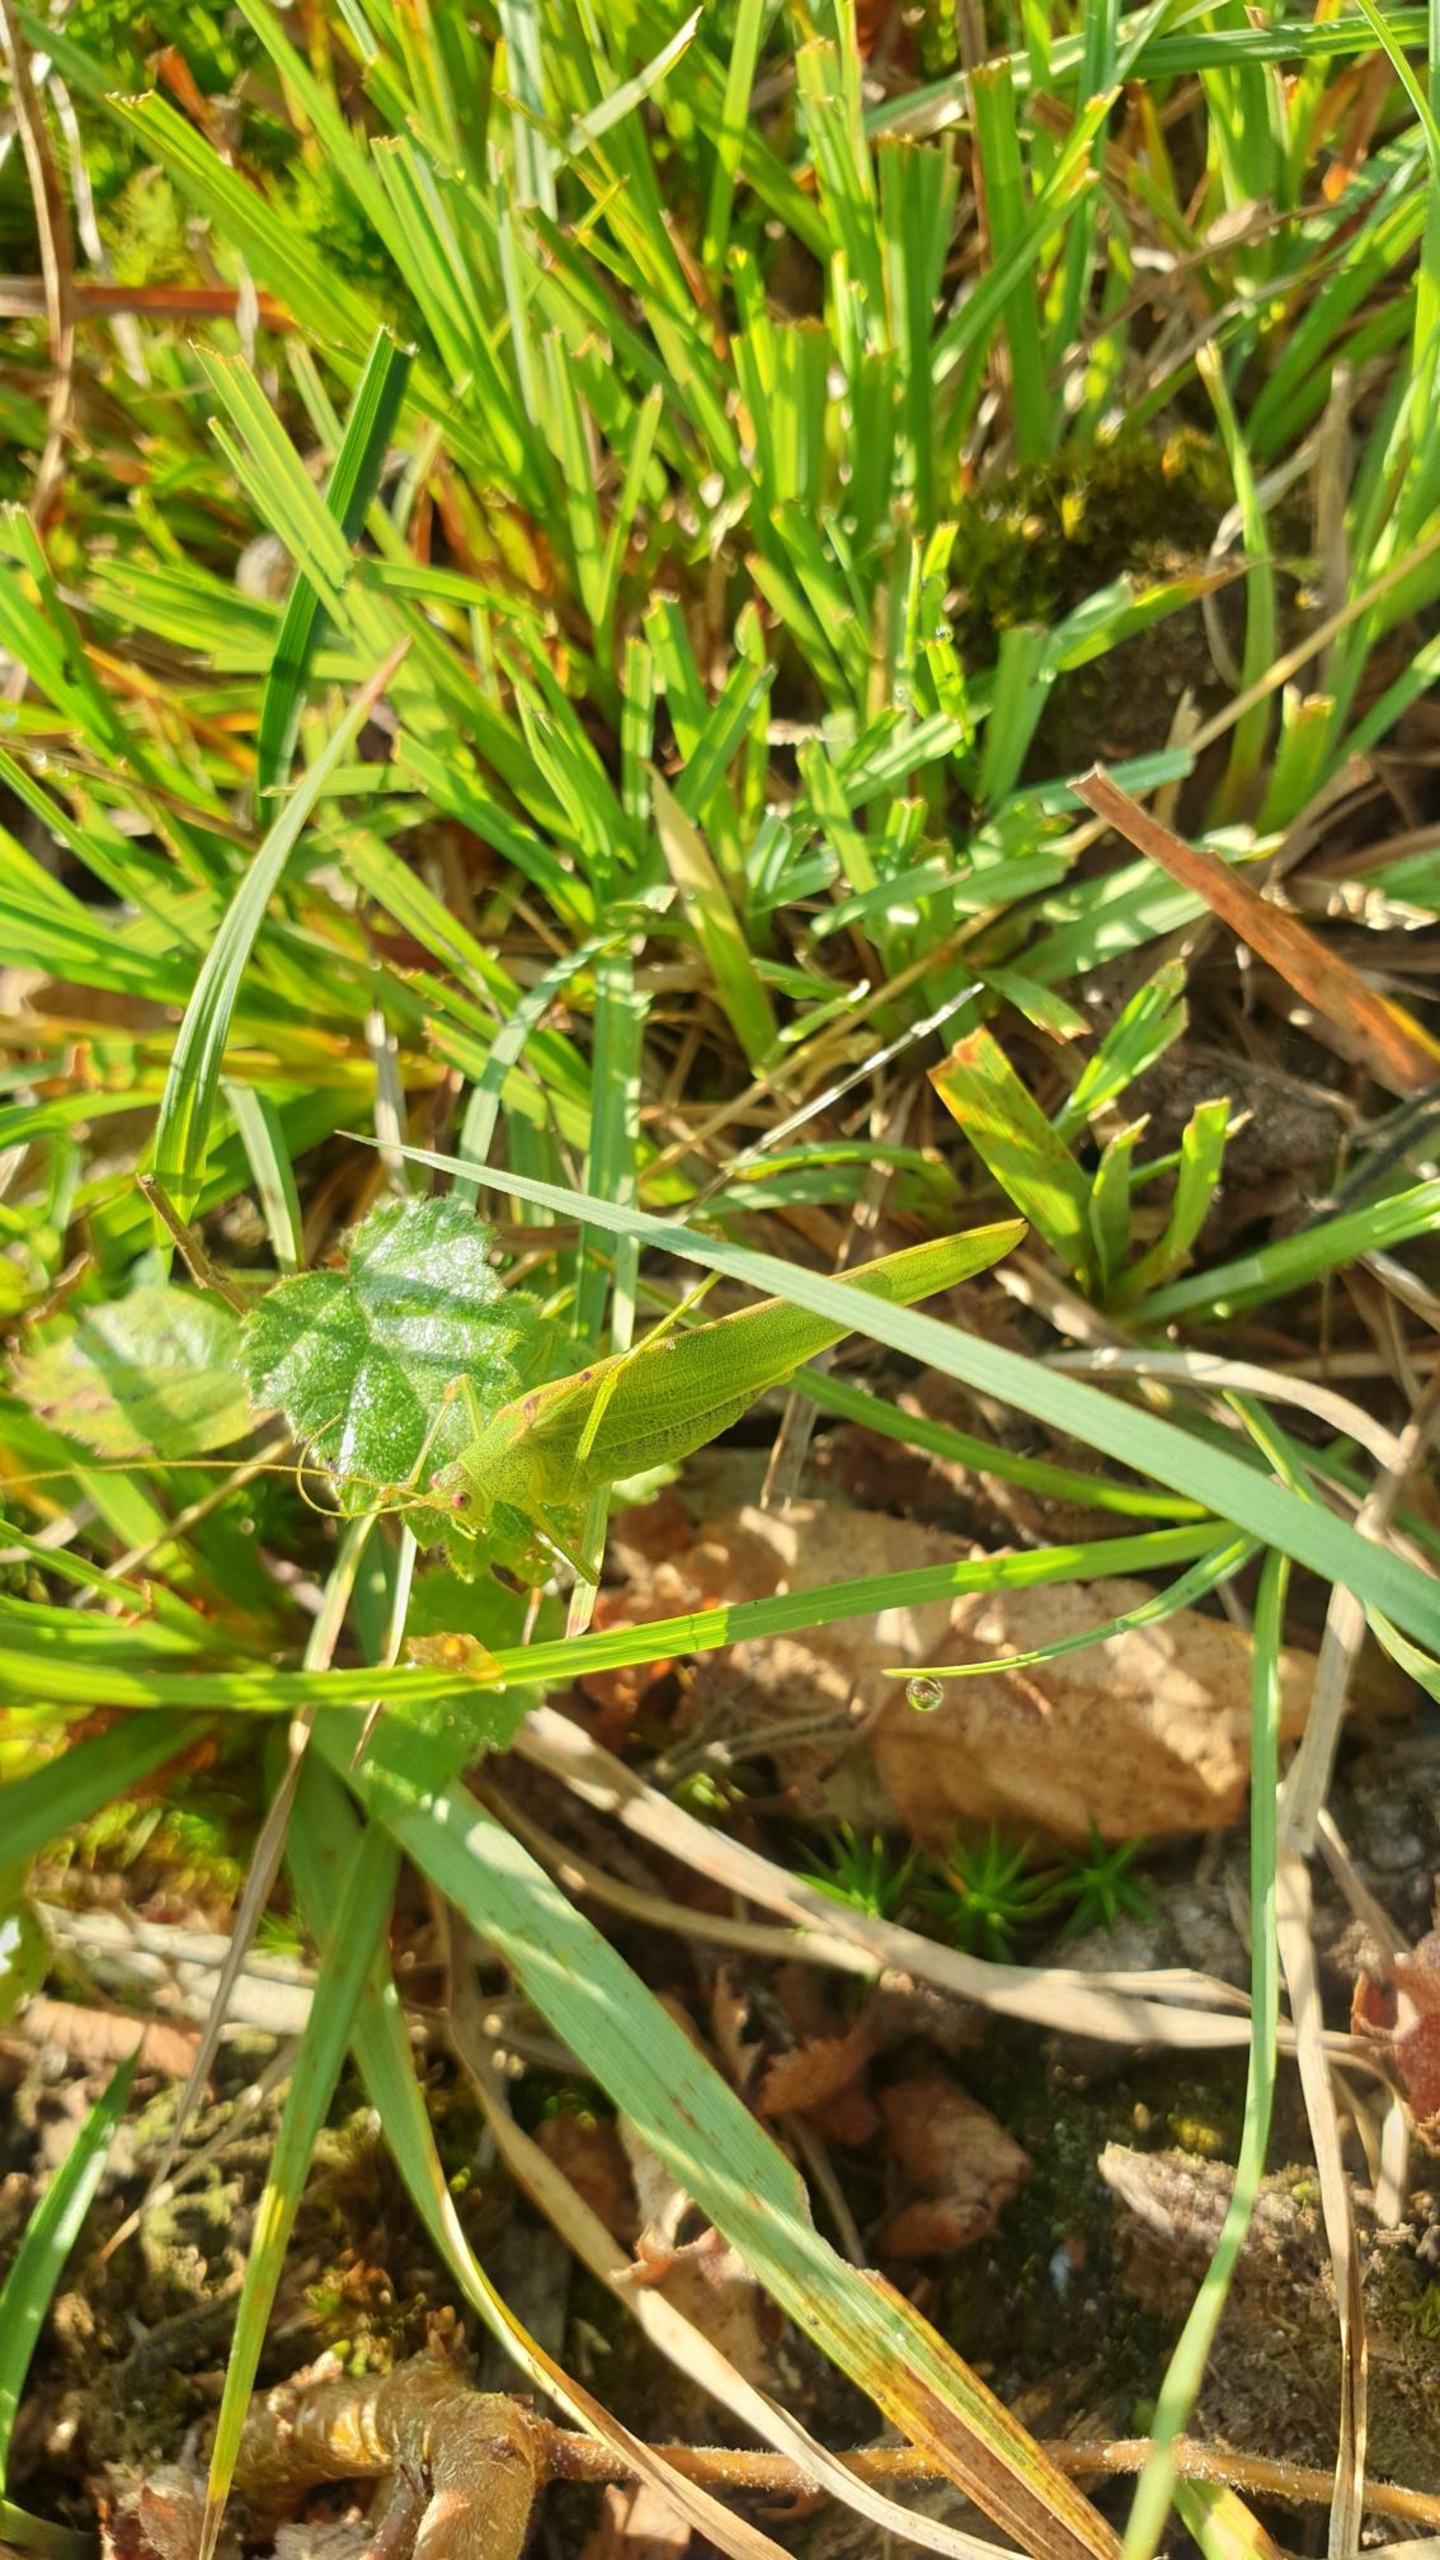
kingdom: Animalia
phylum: Arthropoda
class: Insecta
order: Orthoptera
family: Tettigoniidae
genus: Phaneroptera
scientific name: Phaneroptera falcata
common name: Seglgræshoppe
